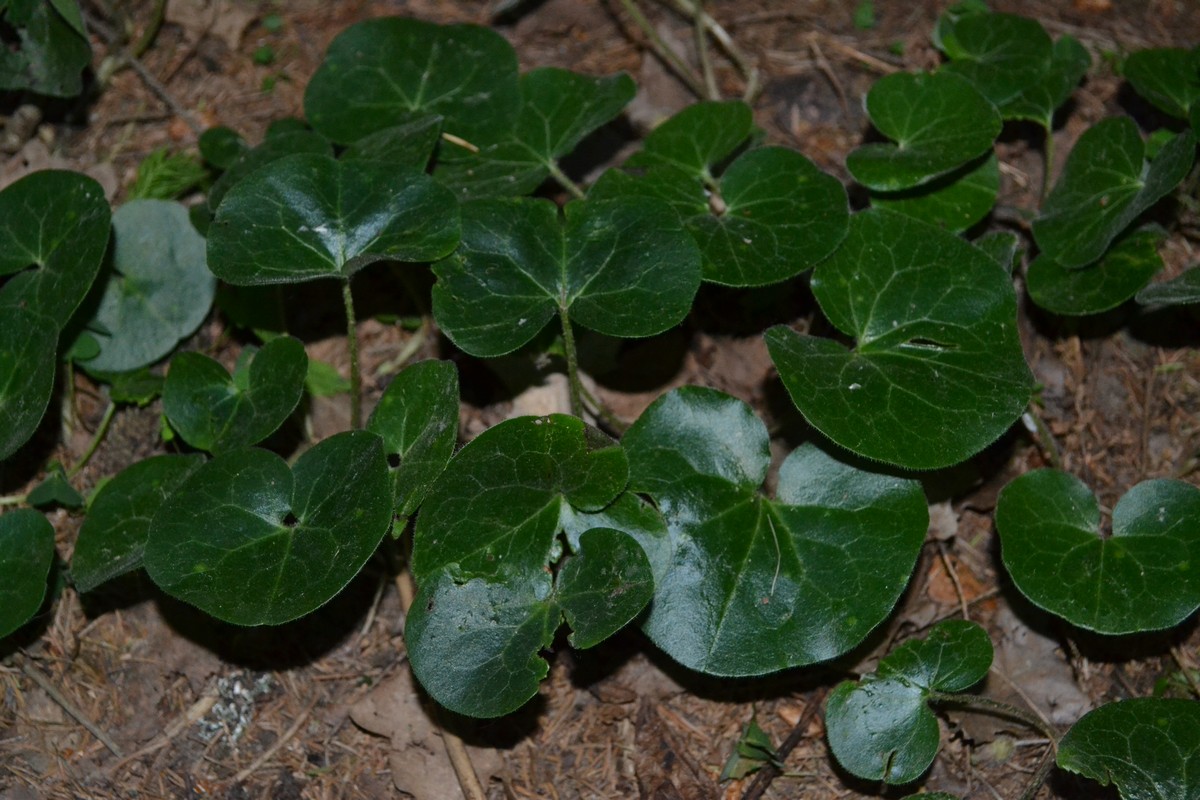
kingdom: Plantae
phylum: Tracheophyta
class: Magnoliopsida
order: Piperales
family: Aristolochiaceae
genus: Asarum
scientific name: Asarum europaeum
